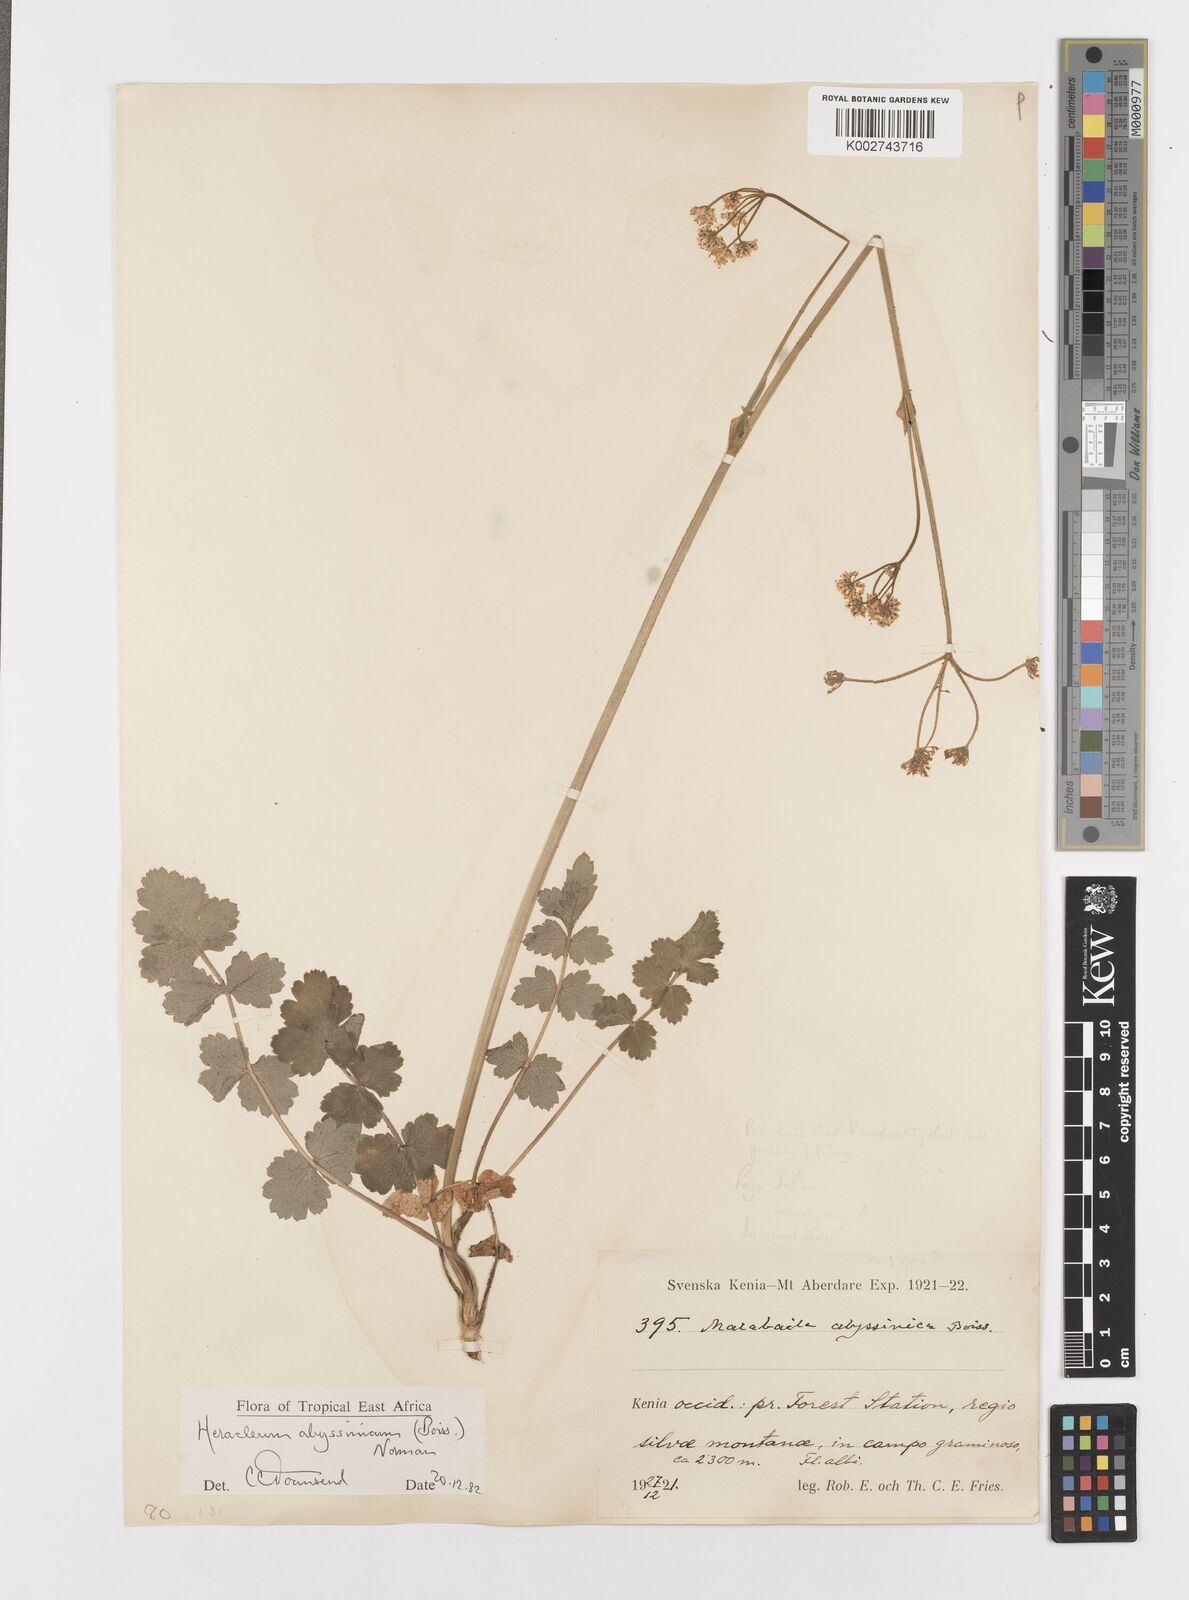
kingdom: Plantae
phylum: Tracheophyta
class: Magnoliopsida
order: Apiales
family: Apiaceae
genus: Heracleum
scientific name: Heracleum abyssinicum
